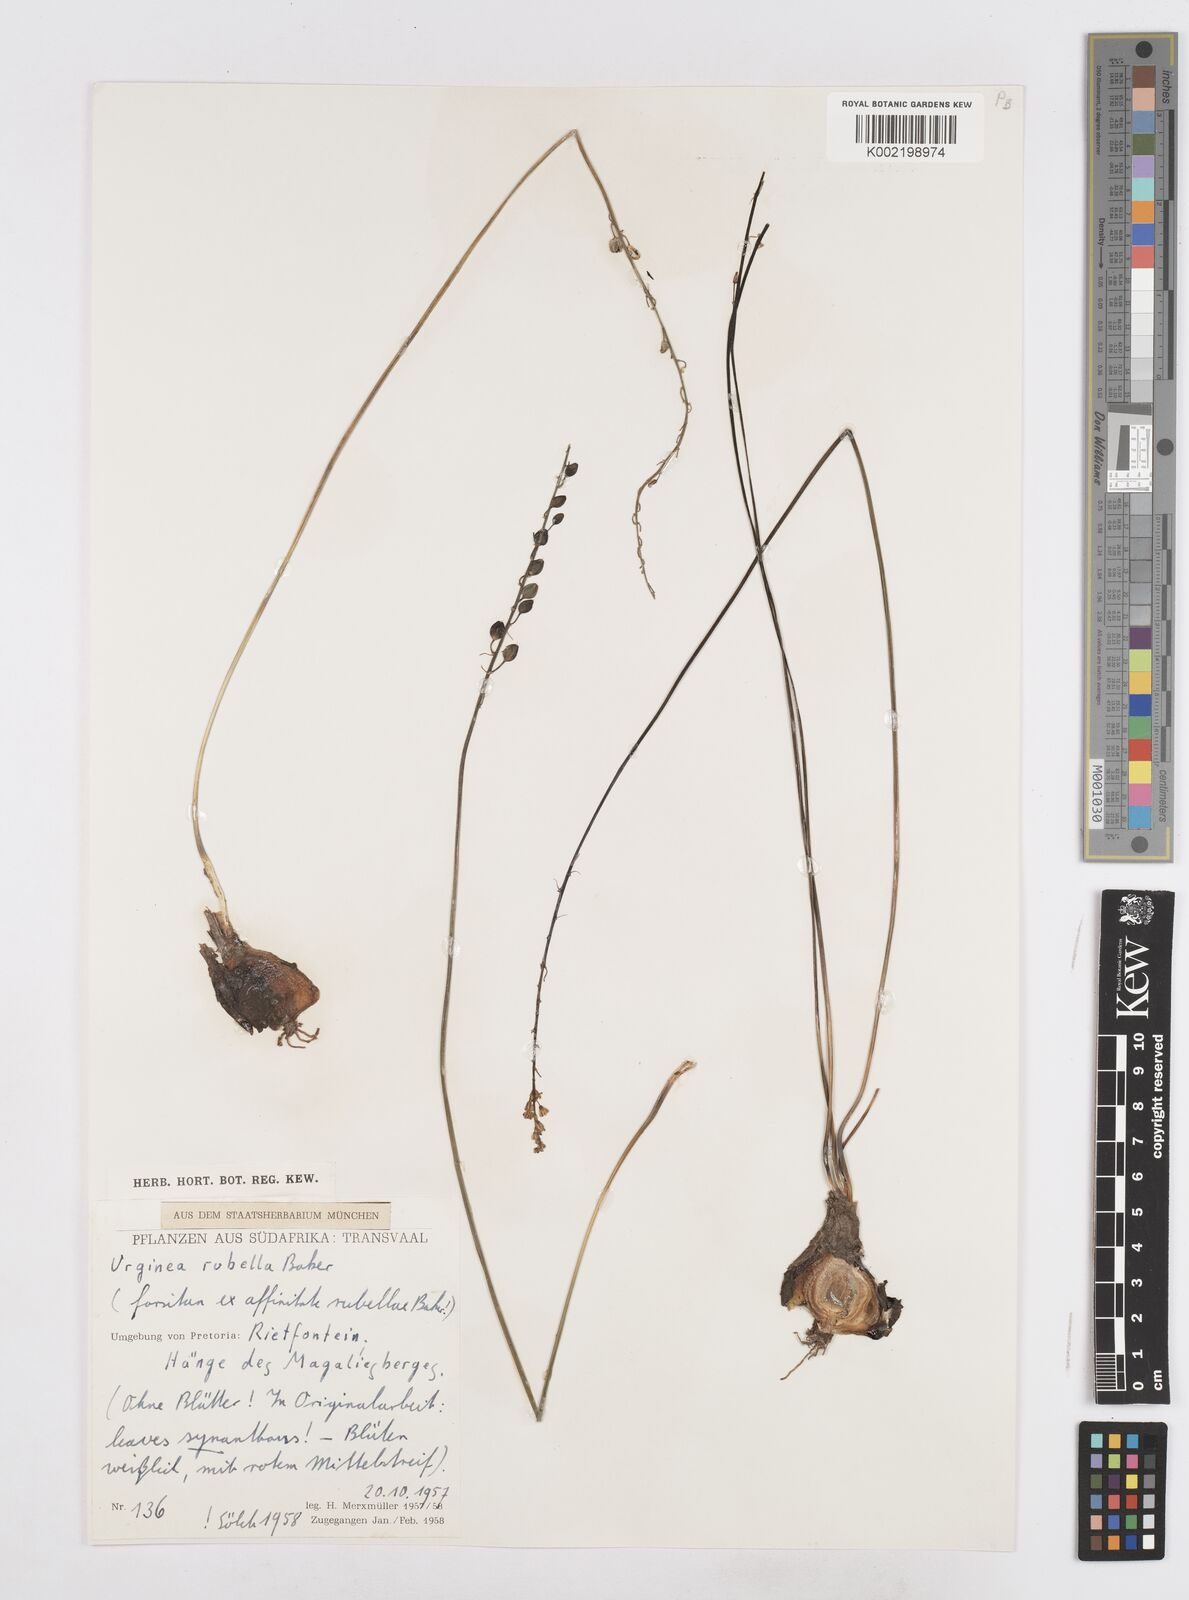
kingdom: Plantae
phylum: Tracheophyta
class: Liliopsida
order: Asparagales
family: Asparagaceae
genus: Drimia
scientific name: Drimia
